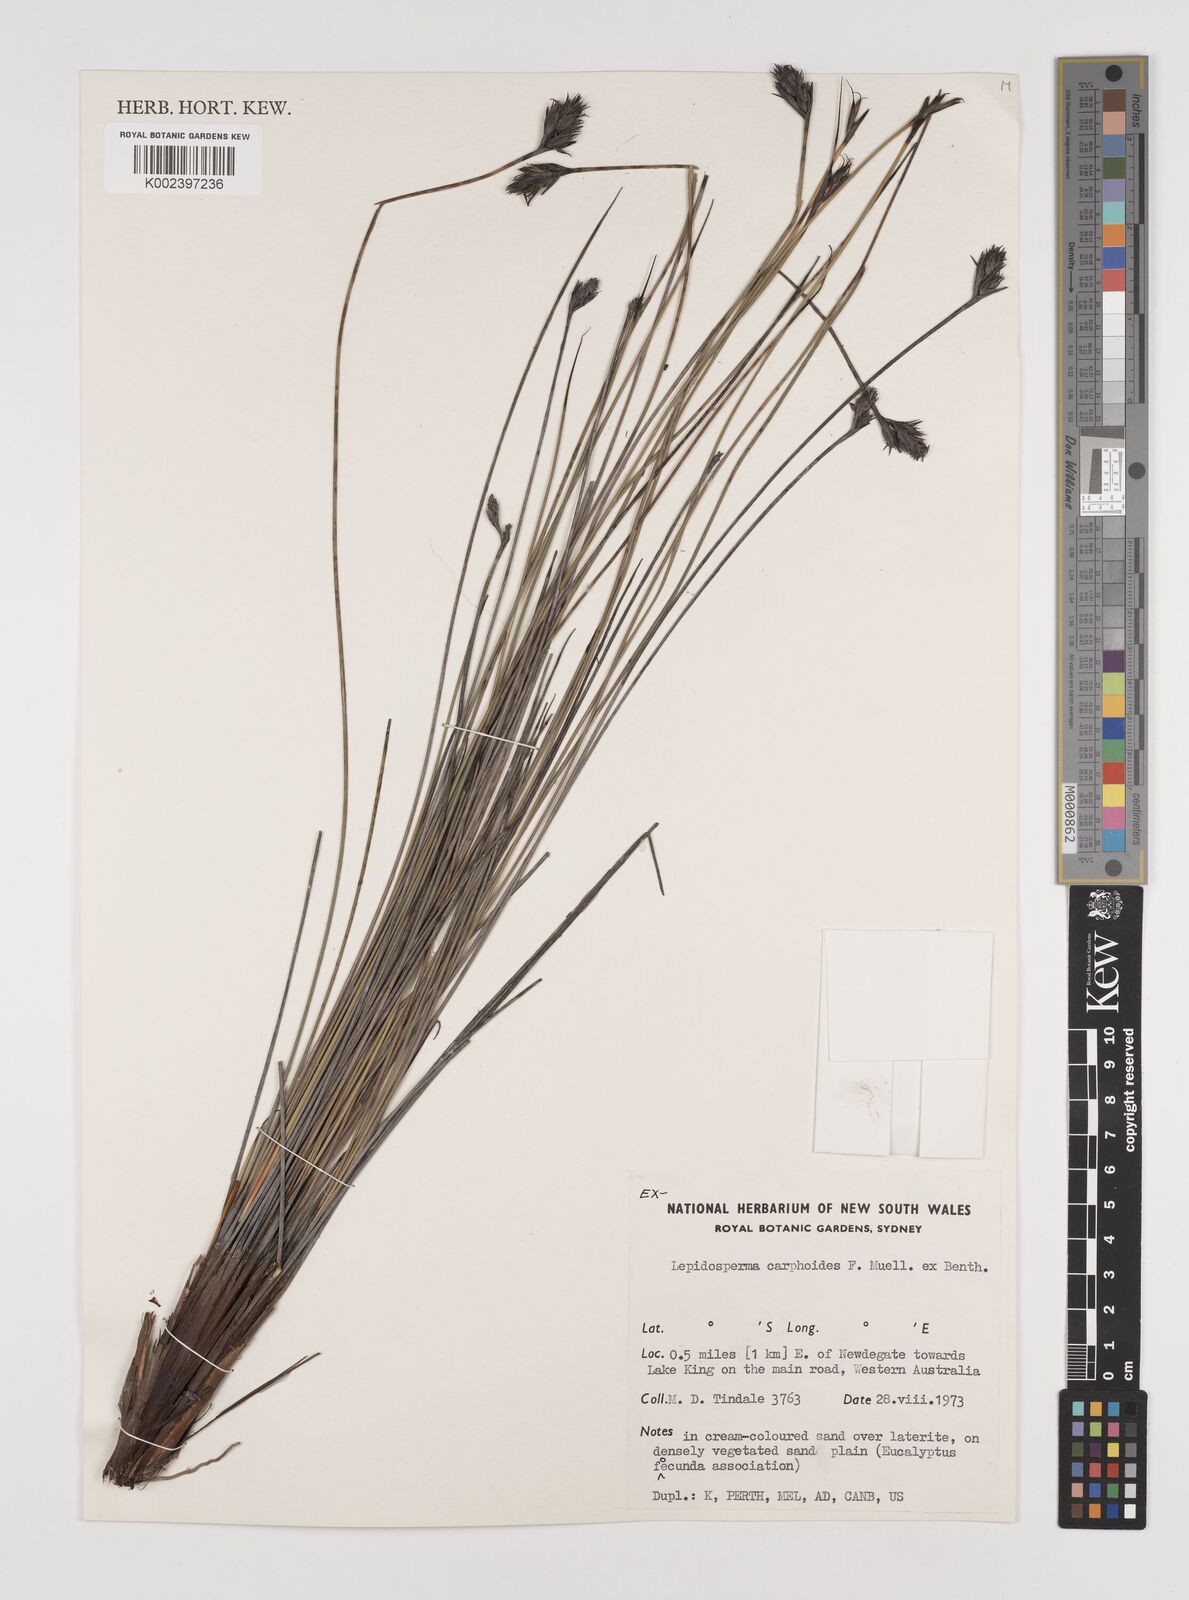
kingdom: Plantae
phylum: Tracheophyta
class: Liliopsida
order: Poales
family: Cyperaceae
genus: Lepidosperma
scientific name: Lepidosperma carphoides
